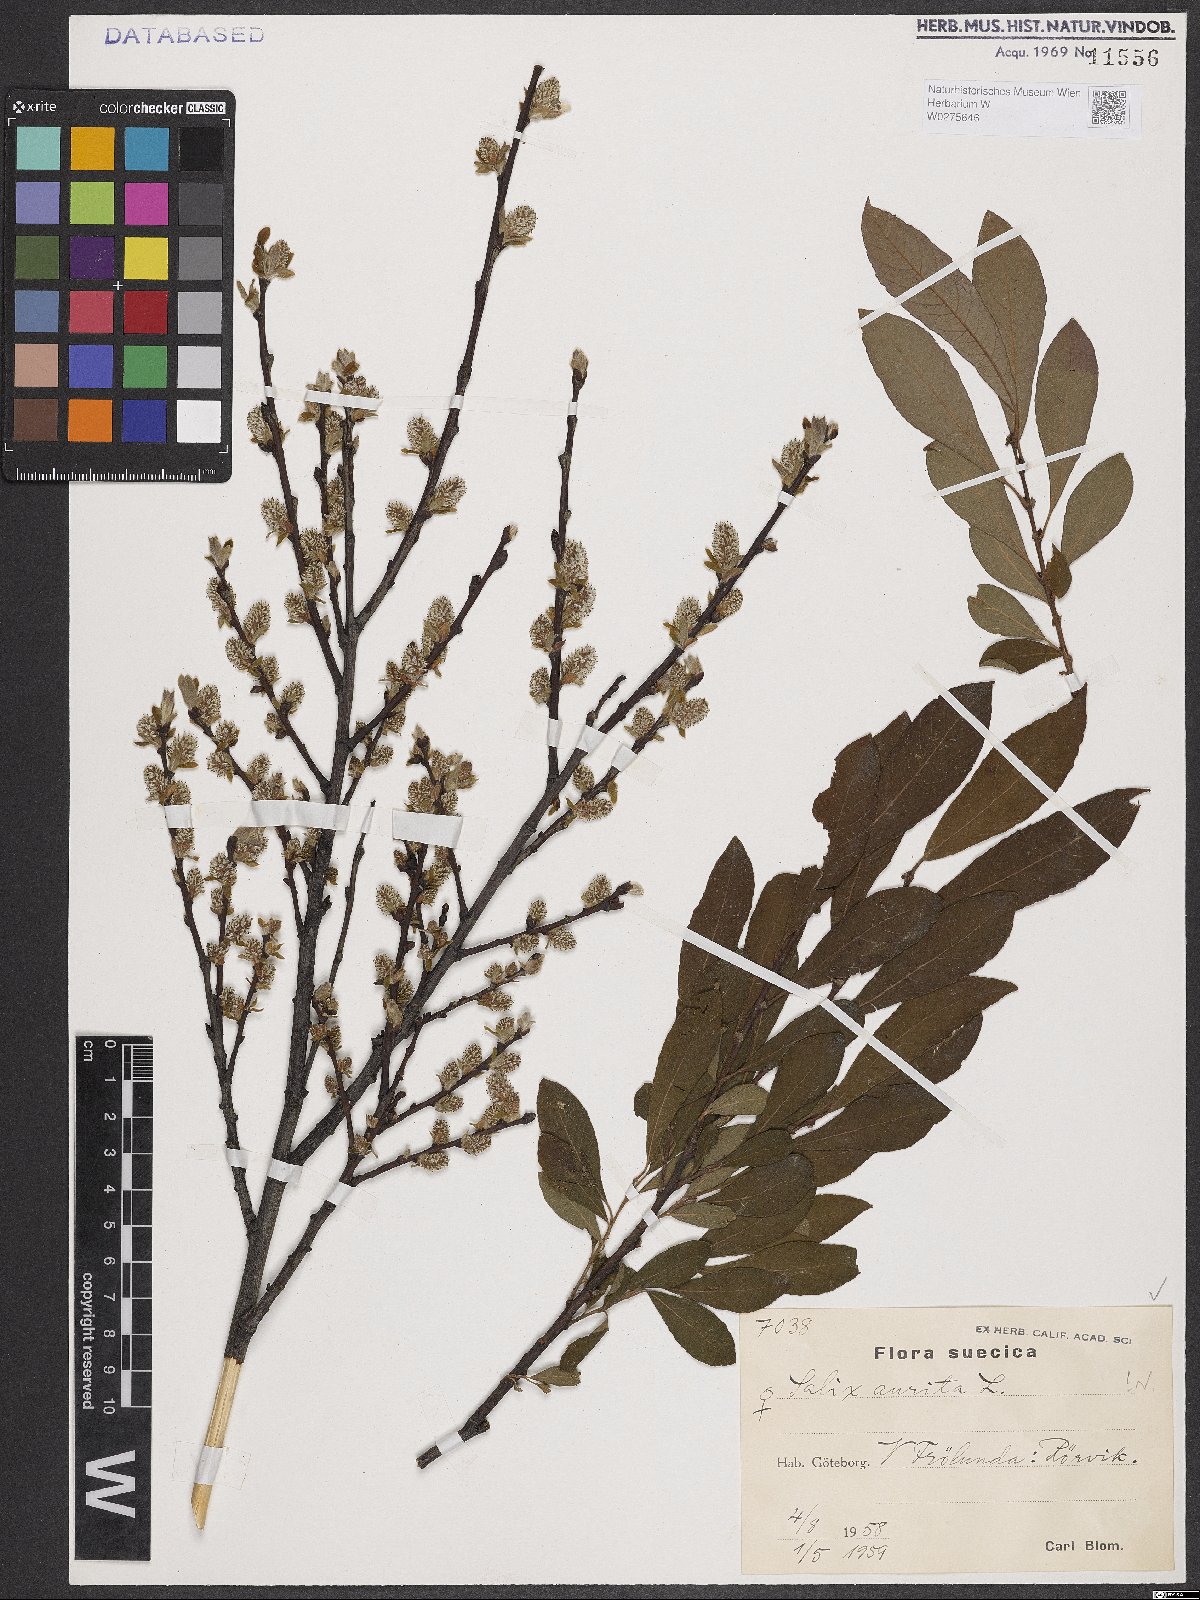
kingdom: Plantae
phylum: Tracheophyta
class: Magnoliopsida
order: Malpighiales
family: Salicaceae
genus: Salix
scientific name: Salix aurita
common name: Eared willow
